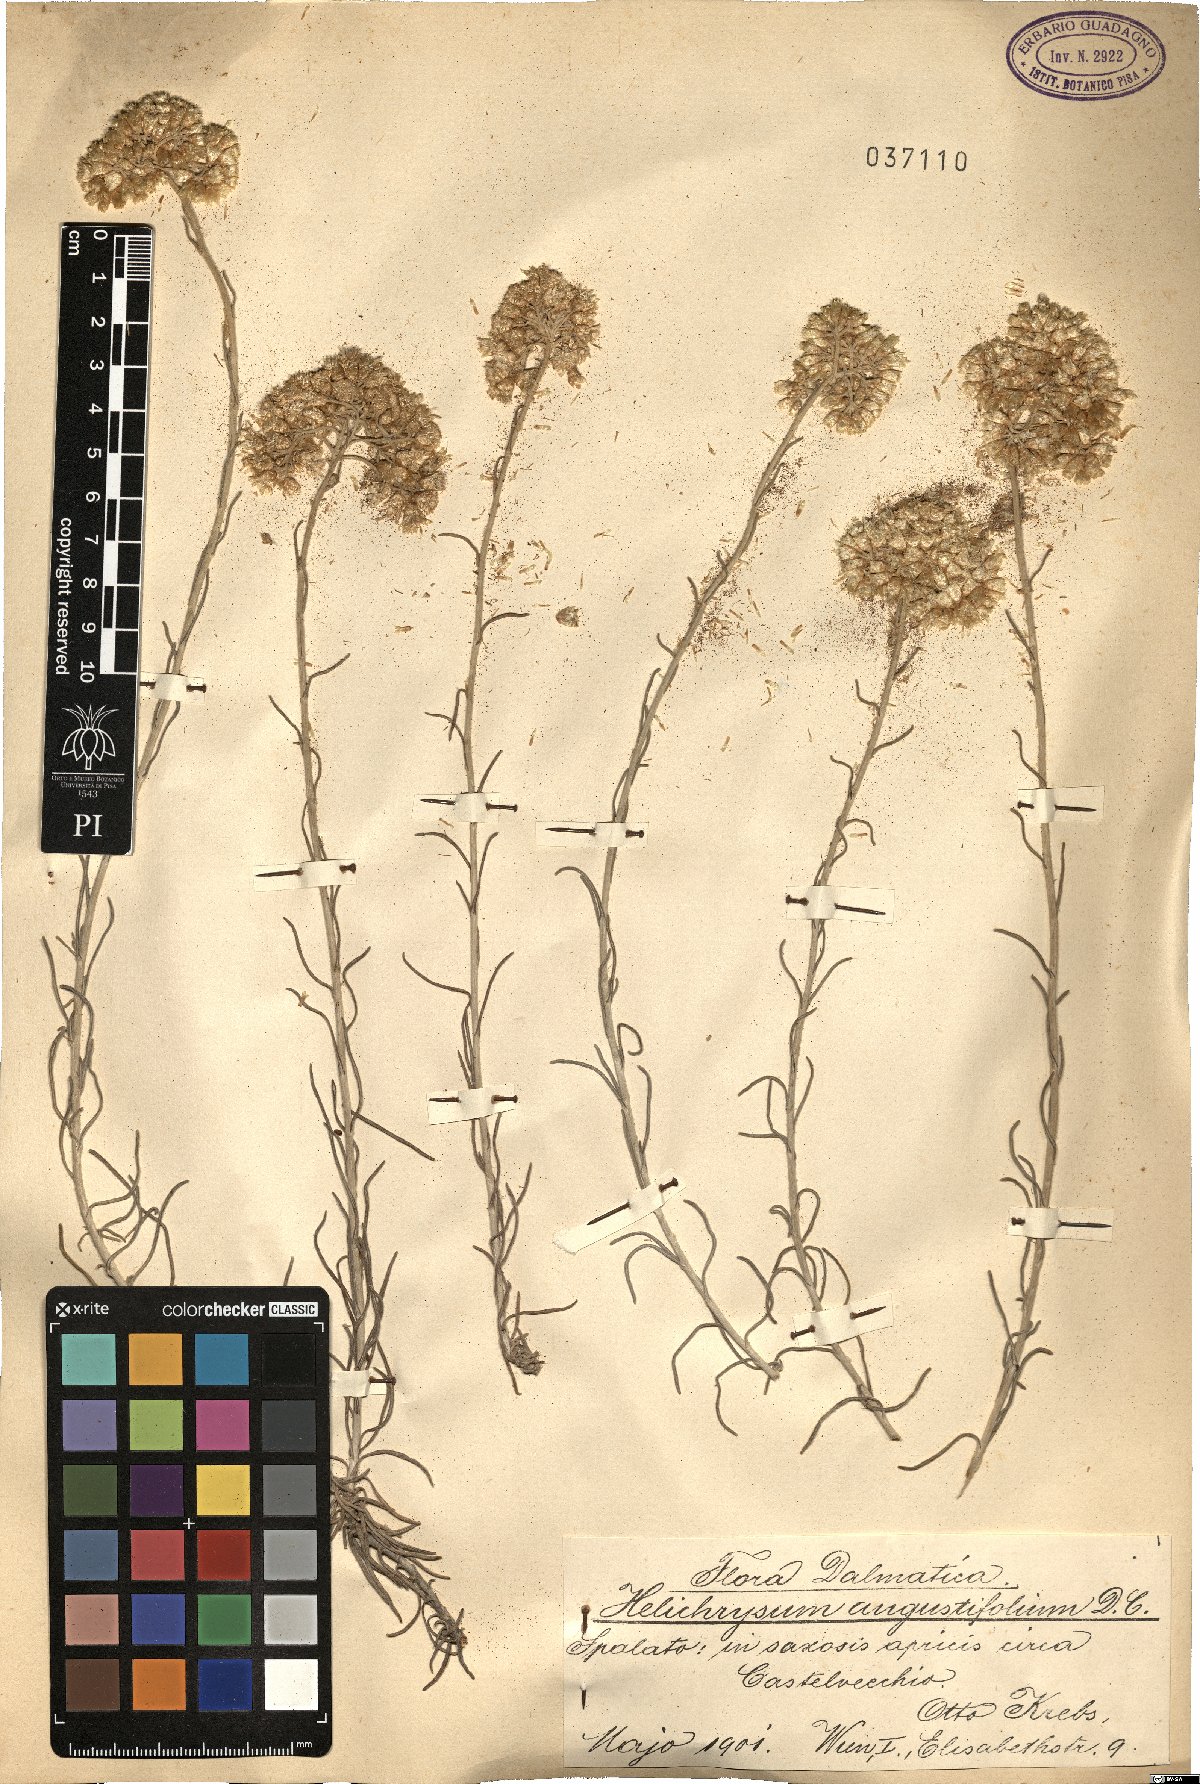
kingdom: Plantae
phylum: Tracheophyta
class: Magnoliopsida
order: Asterales
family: Asteraceae
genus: Helichrysum
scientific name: Helichrysum litoreum
